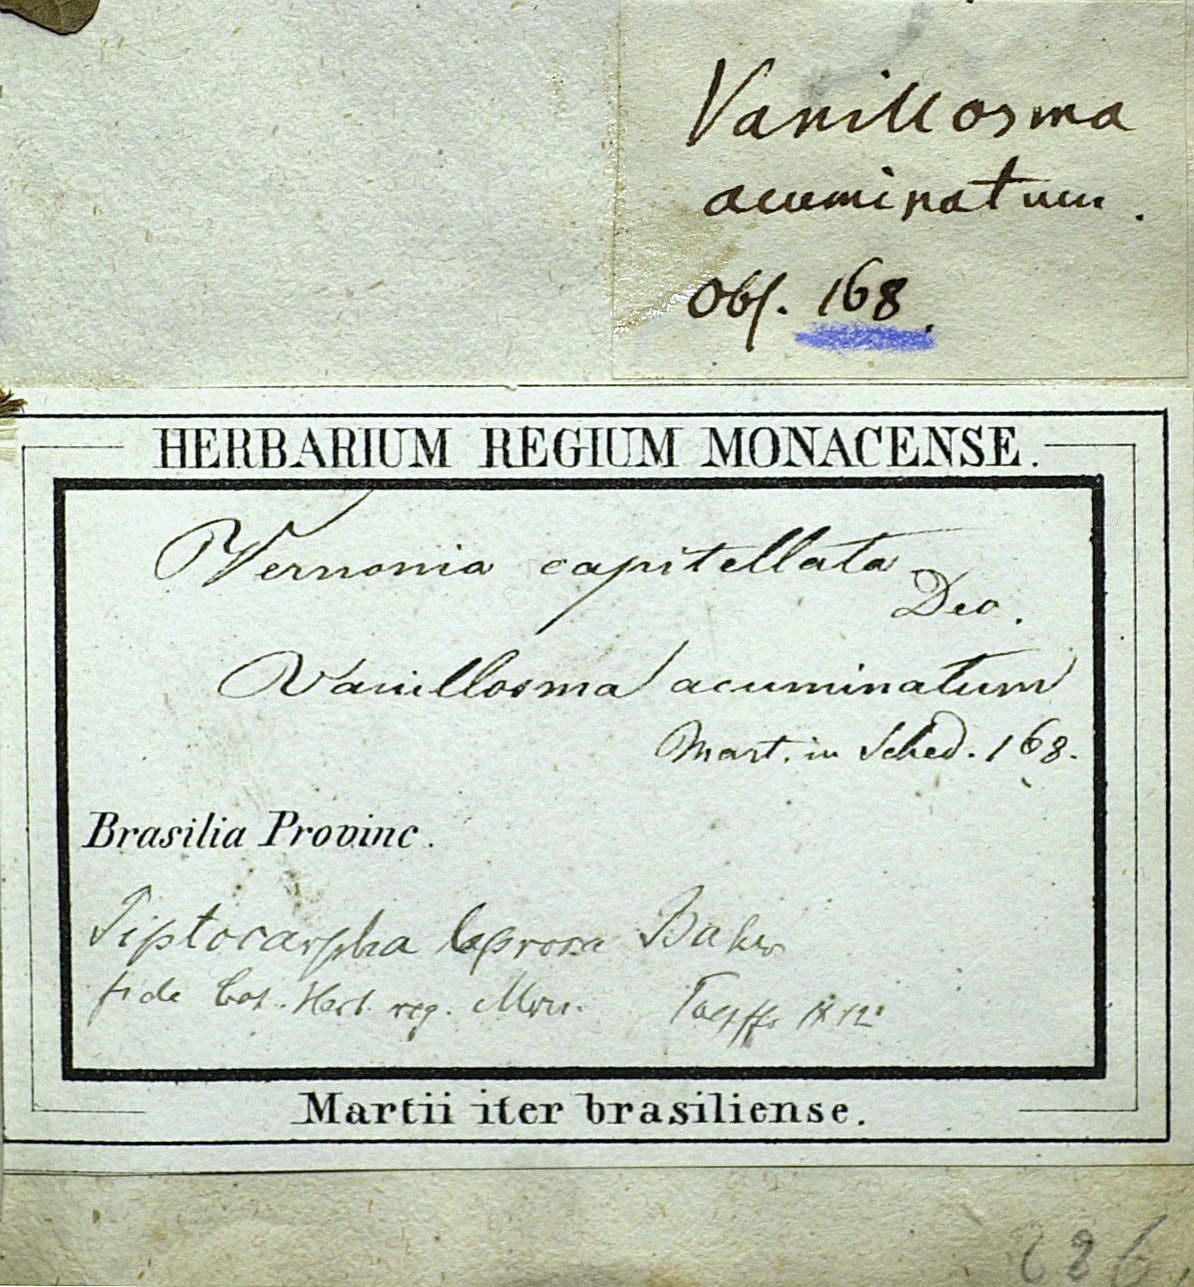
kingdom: Plantae
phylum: Tracheophyta
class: Magnoliopsida
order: Asterales
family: Asteraceae
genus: Piptocarpha
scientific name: Piptocarpha leprosa
